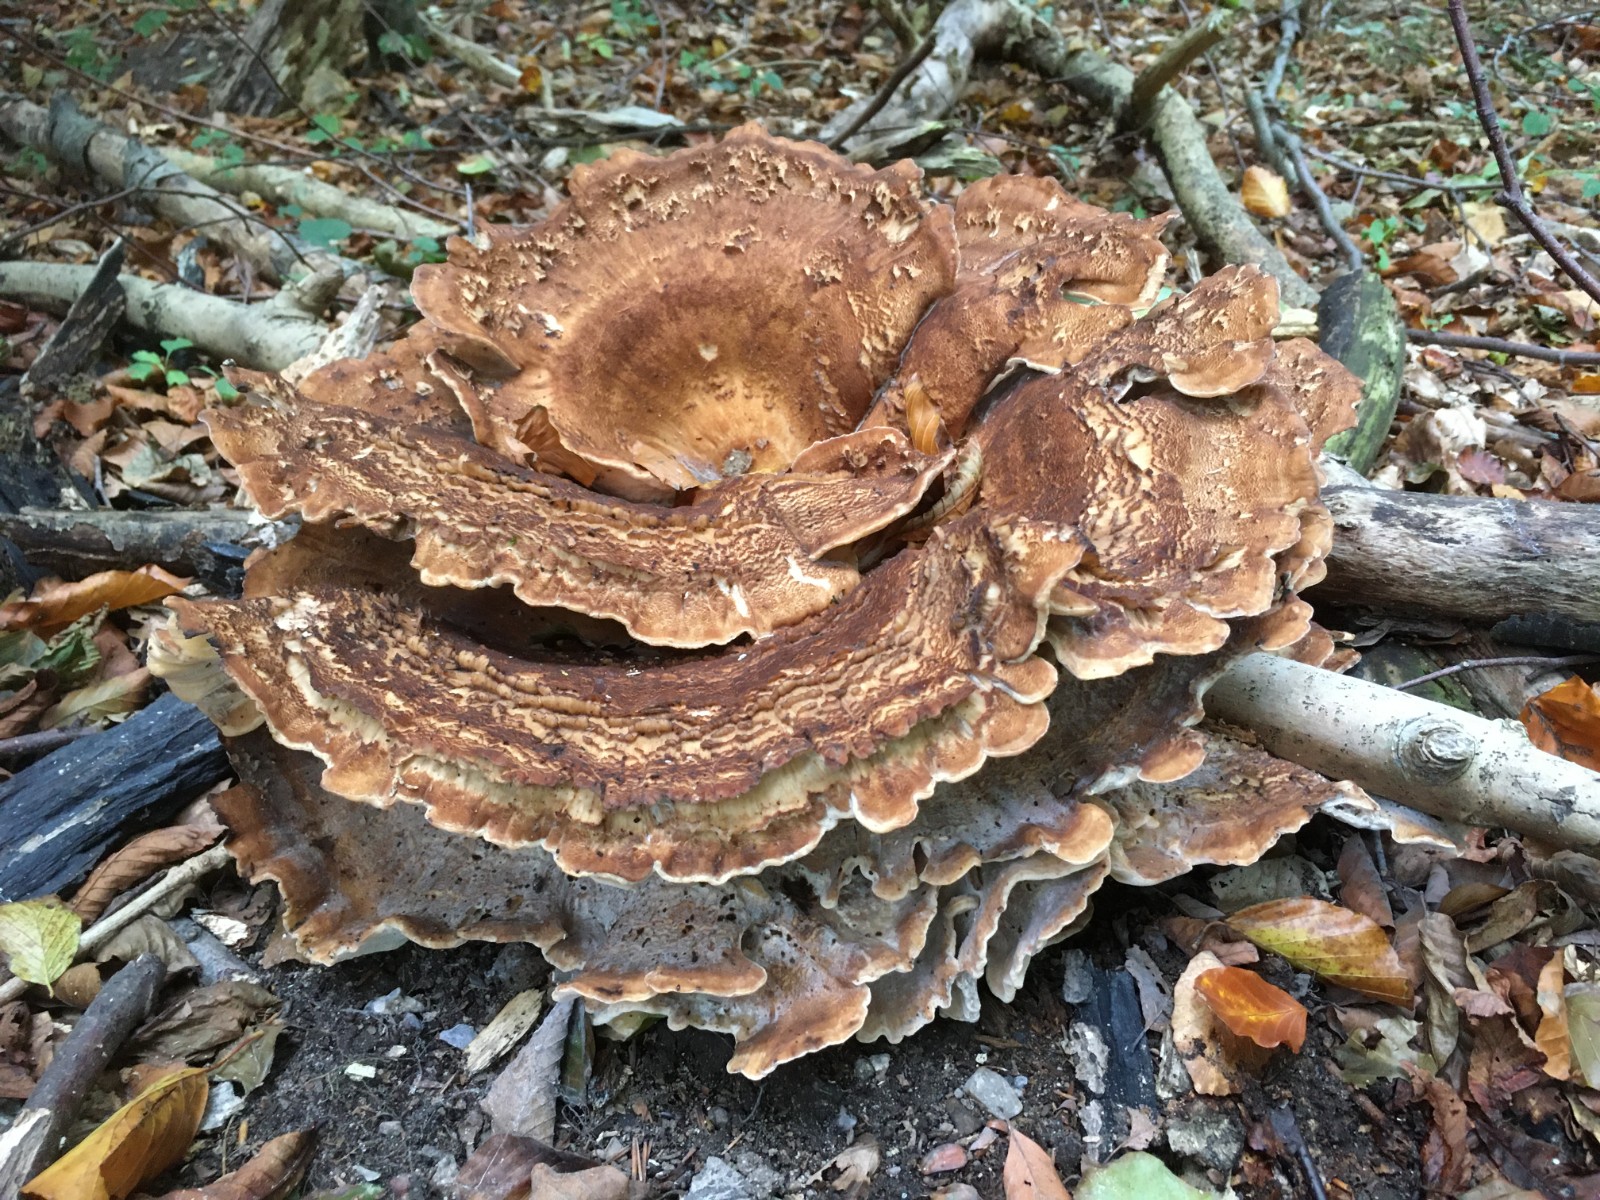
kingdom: Fungi
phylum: Basidiomycota
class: Agaricomycetes
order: Polyporales
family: Meripilaceae
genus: Meripilus
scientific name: Meripilus giganteus
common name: kæmpeporesvamp
